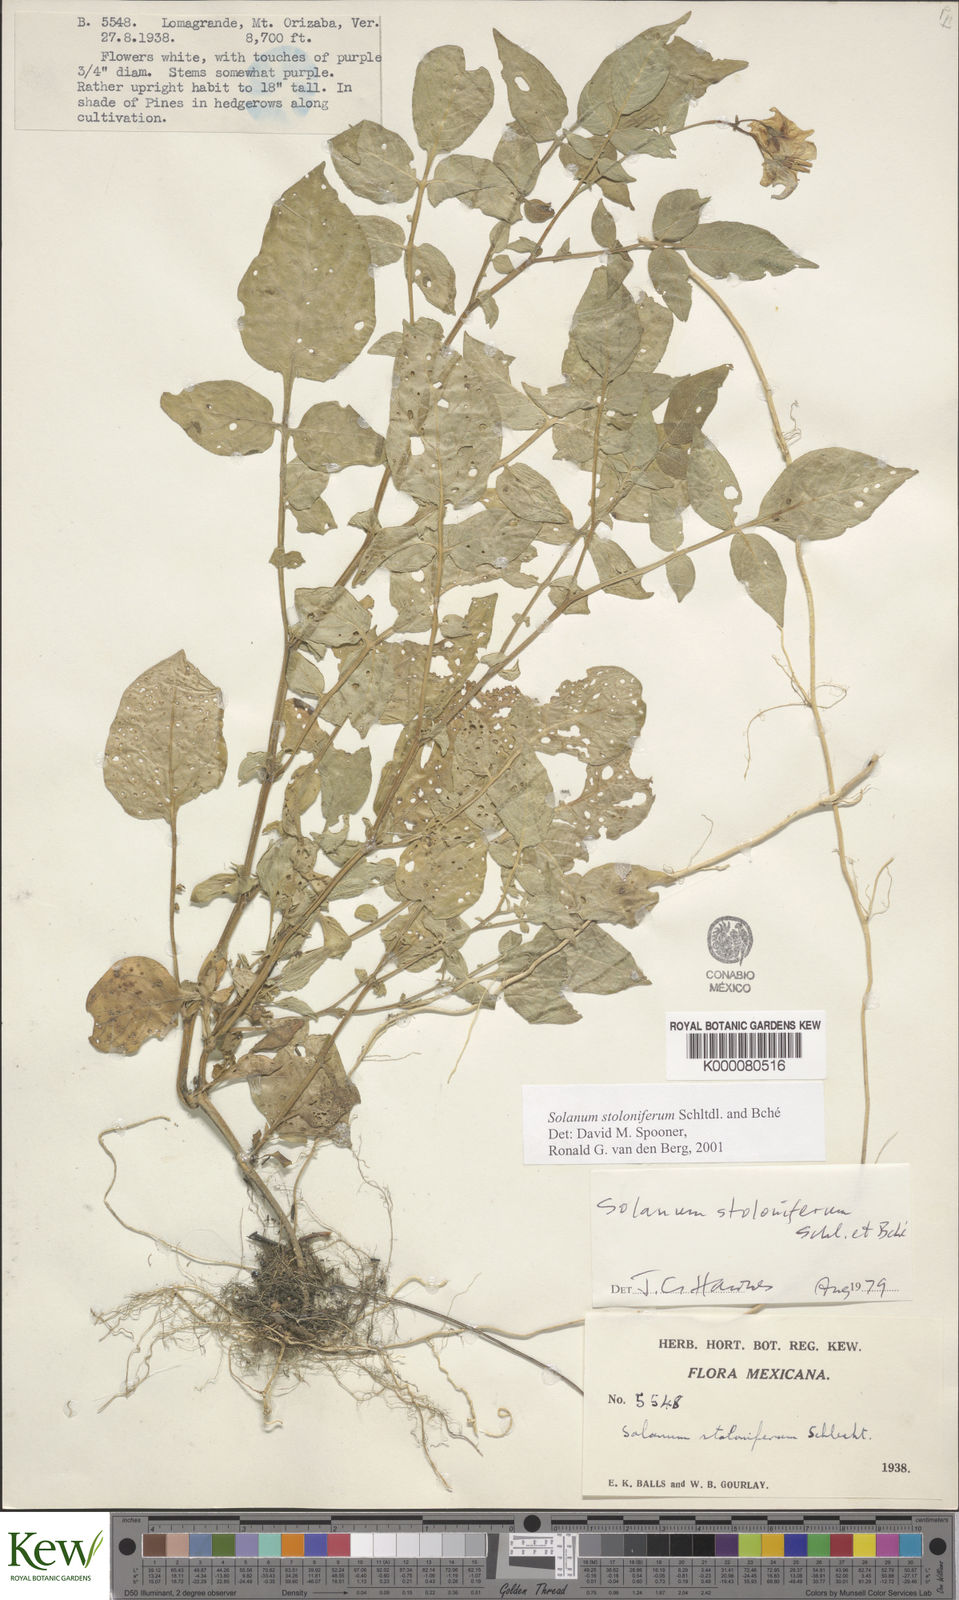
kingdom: Plantae
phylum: Tracheophyta
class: Magnoliopsida
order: Solanales
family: Solanaceae
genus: Solanum
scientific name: Solanum stoloniferum
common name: Fendler's nighshade
